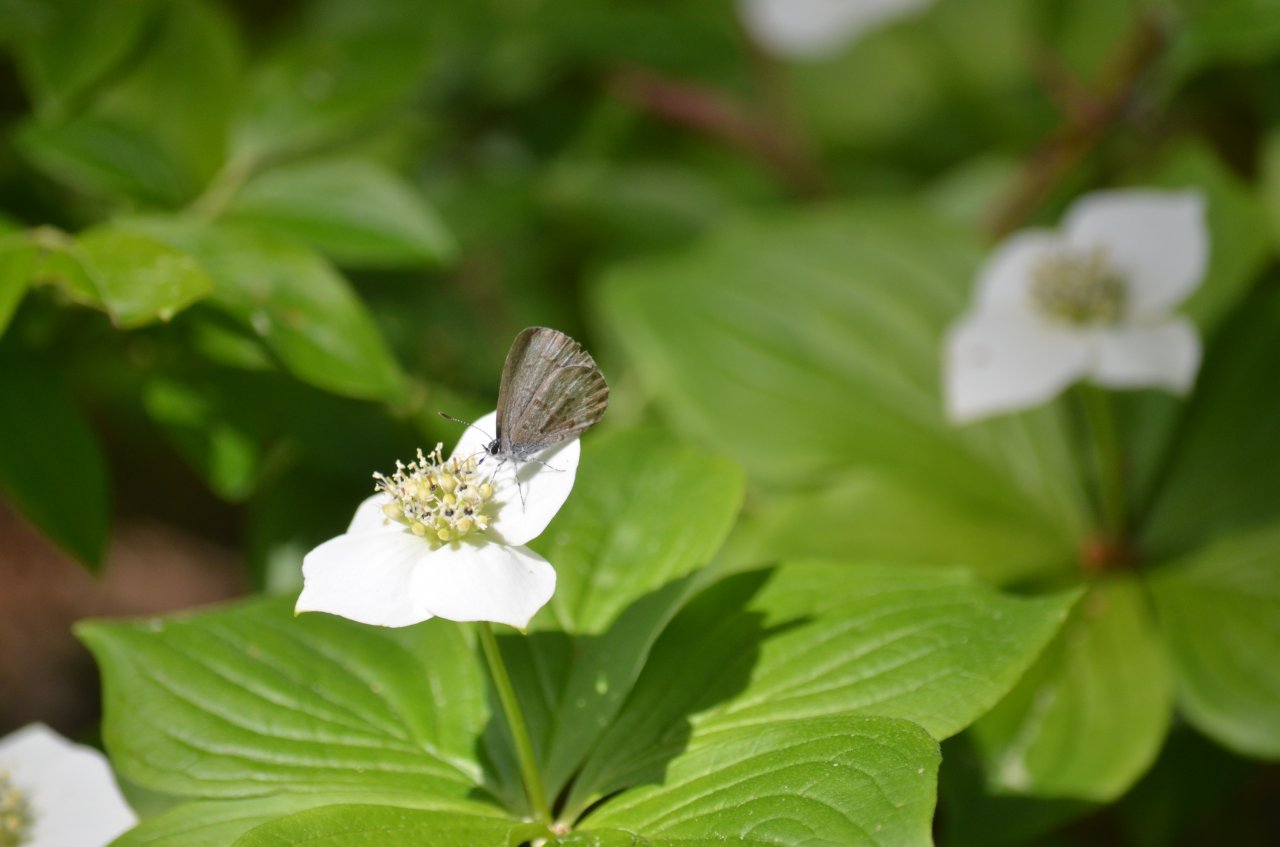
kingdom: Animalia
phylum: Arthropoda
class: Insecta
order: Lepidoptera
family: Lycaenidae
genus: Celastrina
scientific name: Celastrina lucia
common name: Northern Spring Azure
